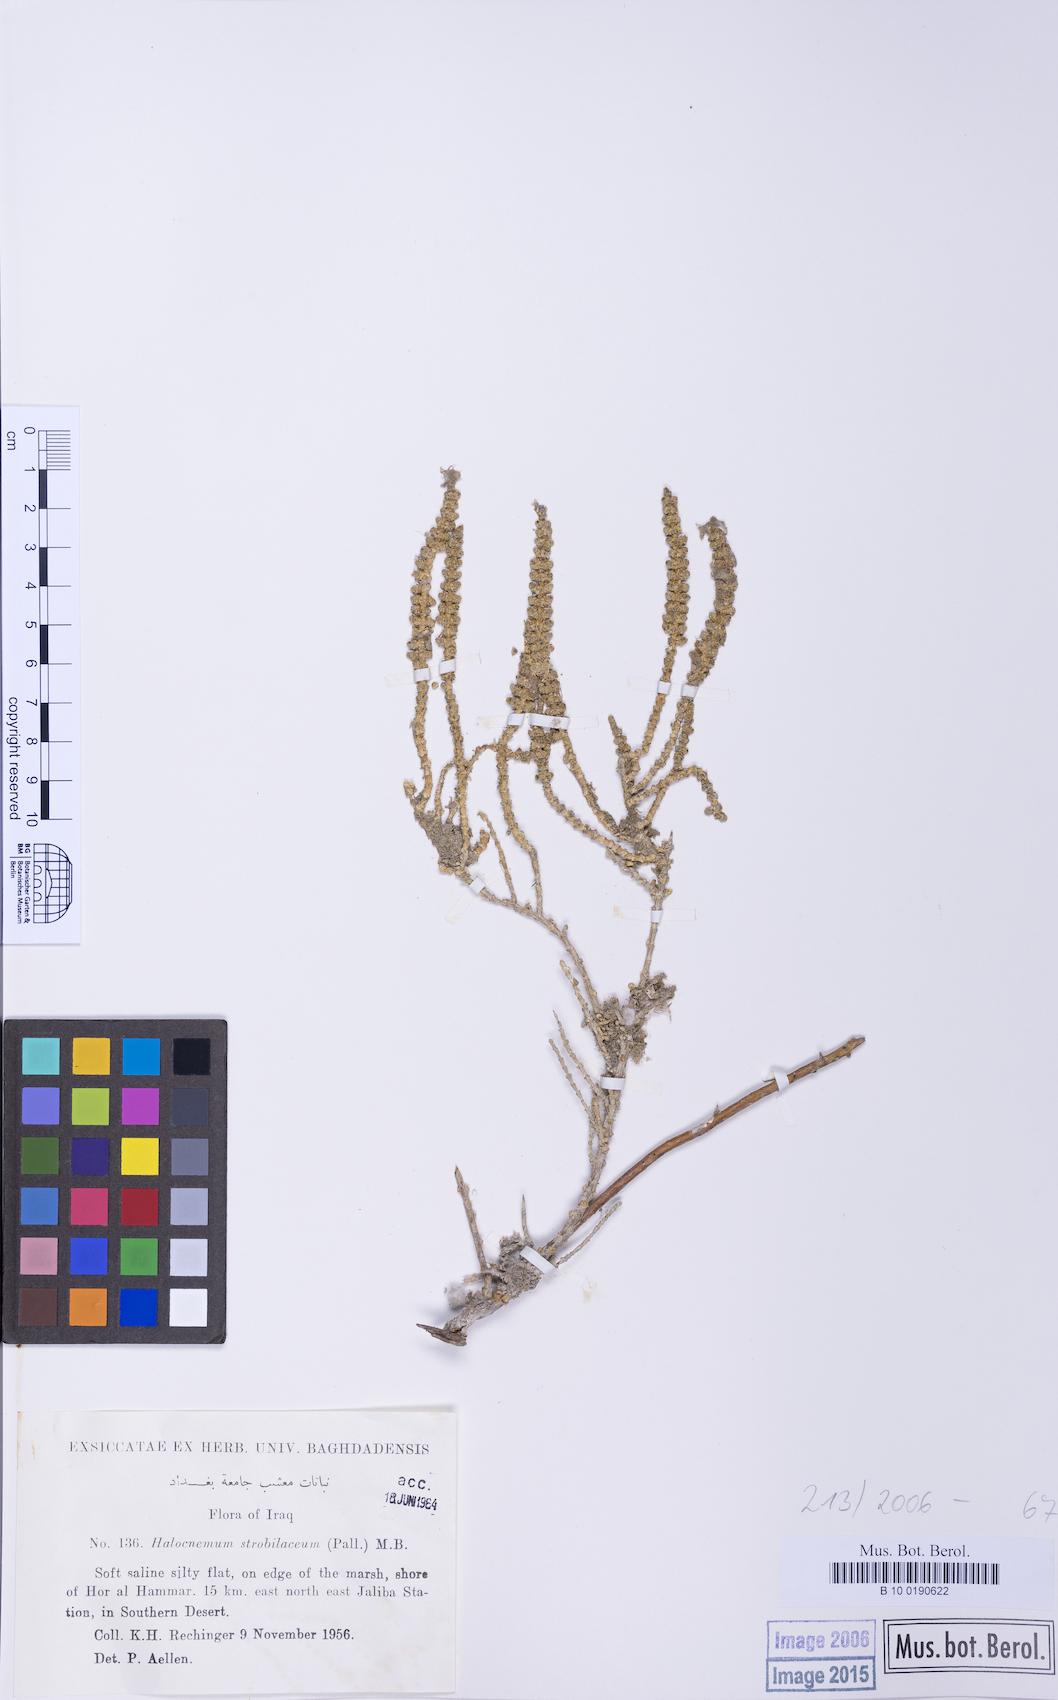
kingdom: Plantae
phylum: Tracheophyta
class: Magnoliopsida
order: Caryophyllales
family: Amaranthaceae
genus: Halocnemum
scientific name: Halocnemum strobilaceum
